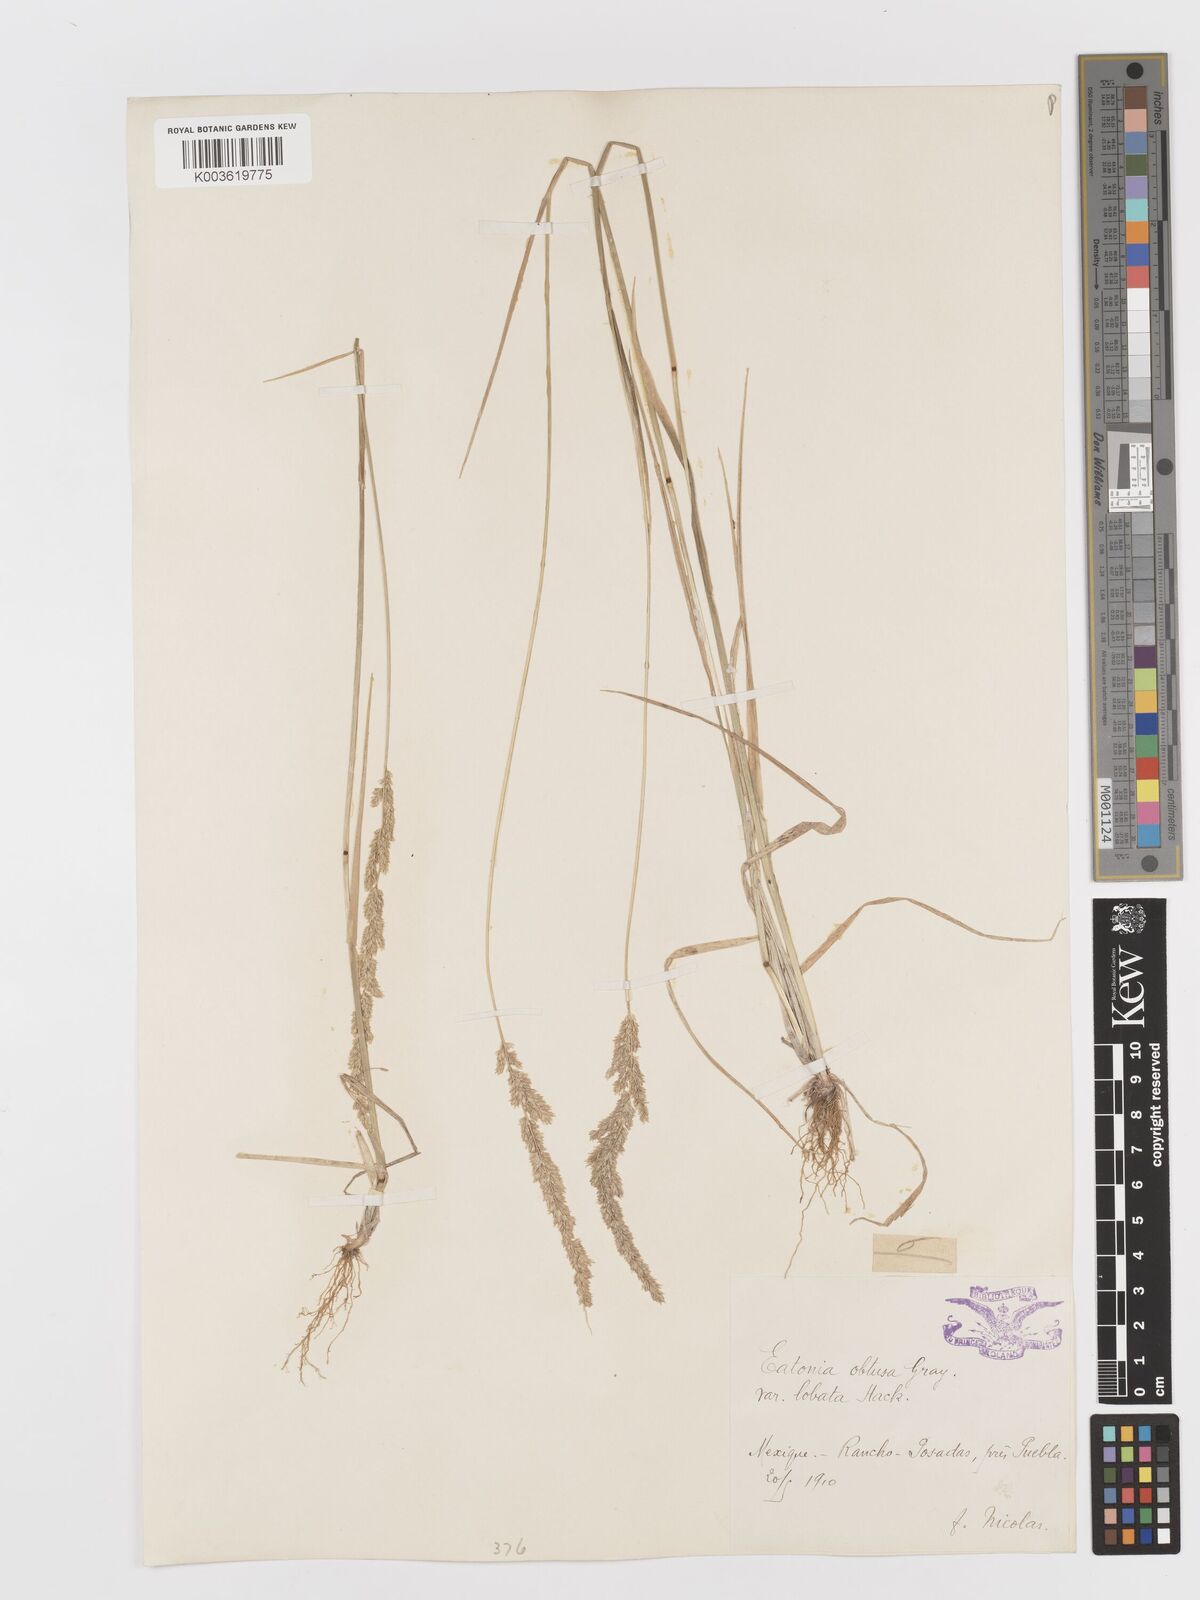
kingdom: Plantae
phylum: Tracheophyta
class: Liliopsida
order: Poales
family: Poaceae
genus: Sphenopholis
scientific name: Sphenopholis obtusata
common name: Prairie grass
